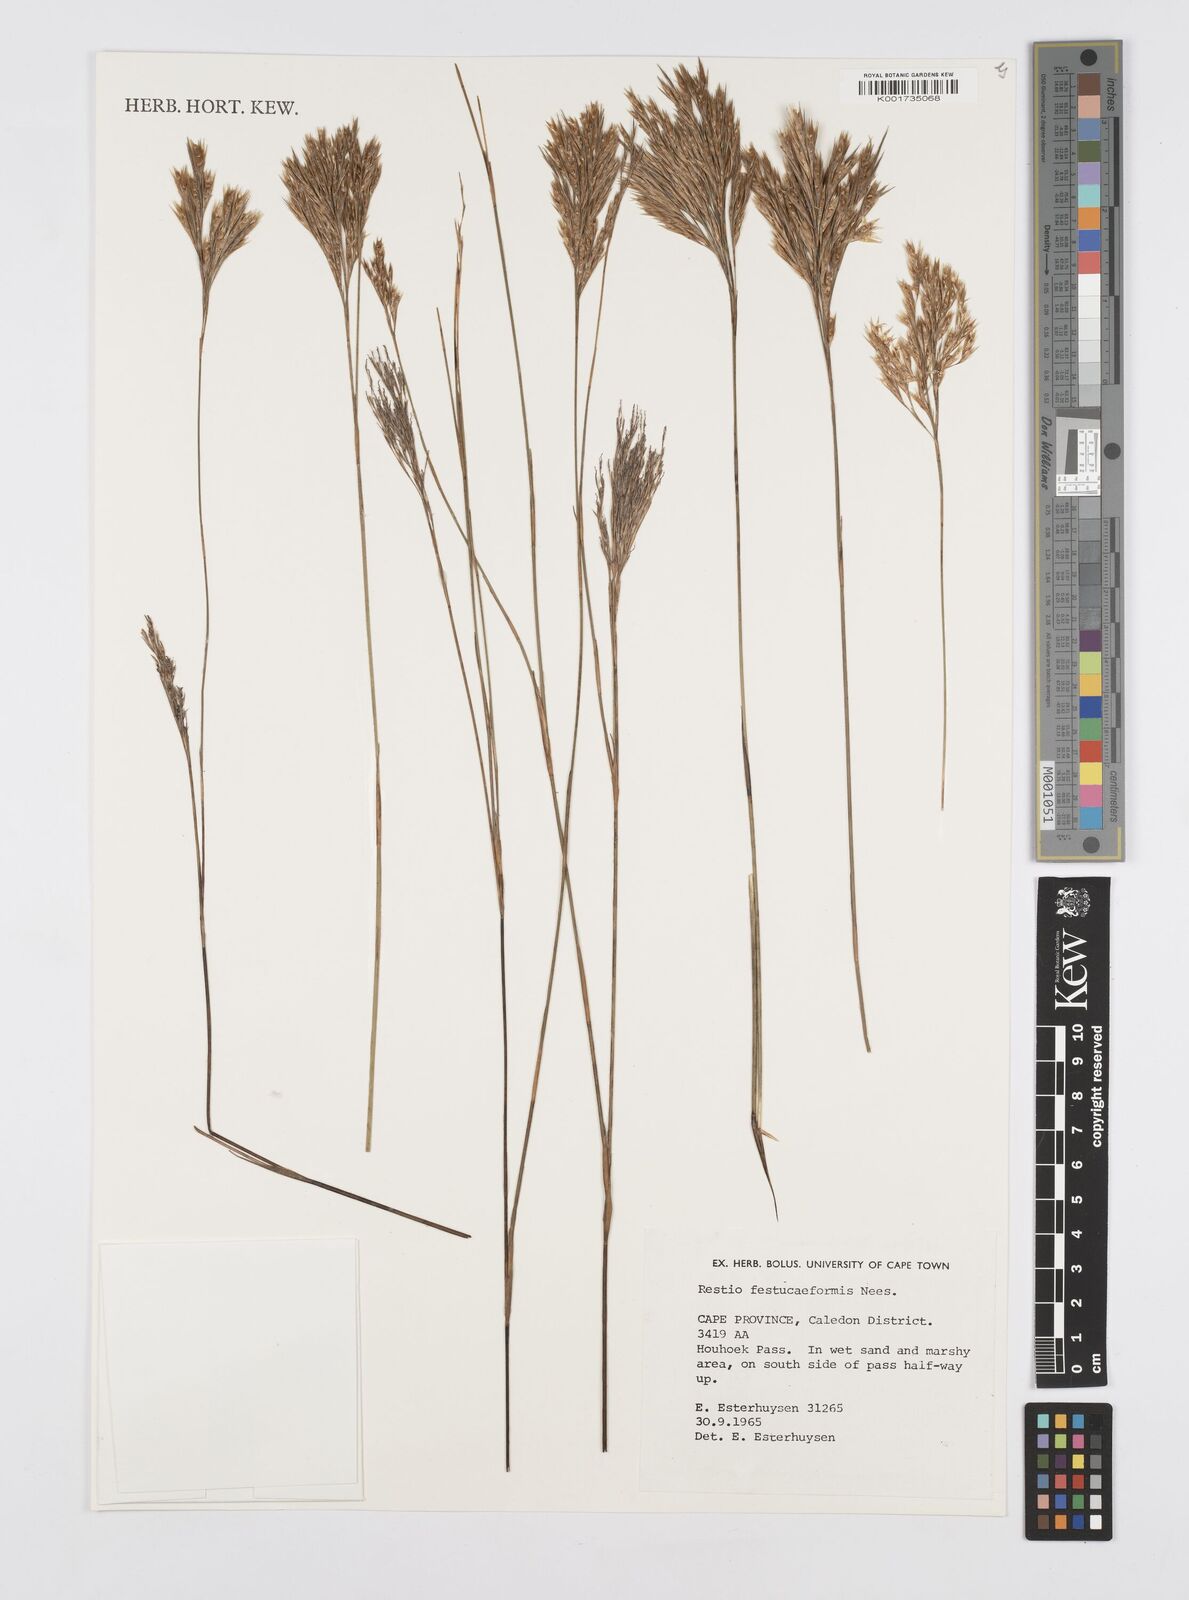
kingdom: Plantae
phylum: Tracheophyta
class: Liliopsida
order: Poales
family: Restionaceae
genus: Restio
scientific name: Restio festuciformis
